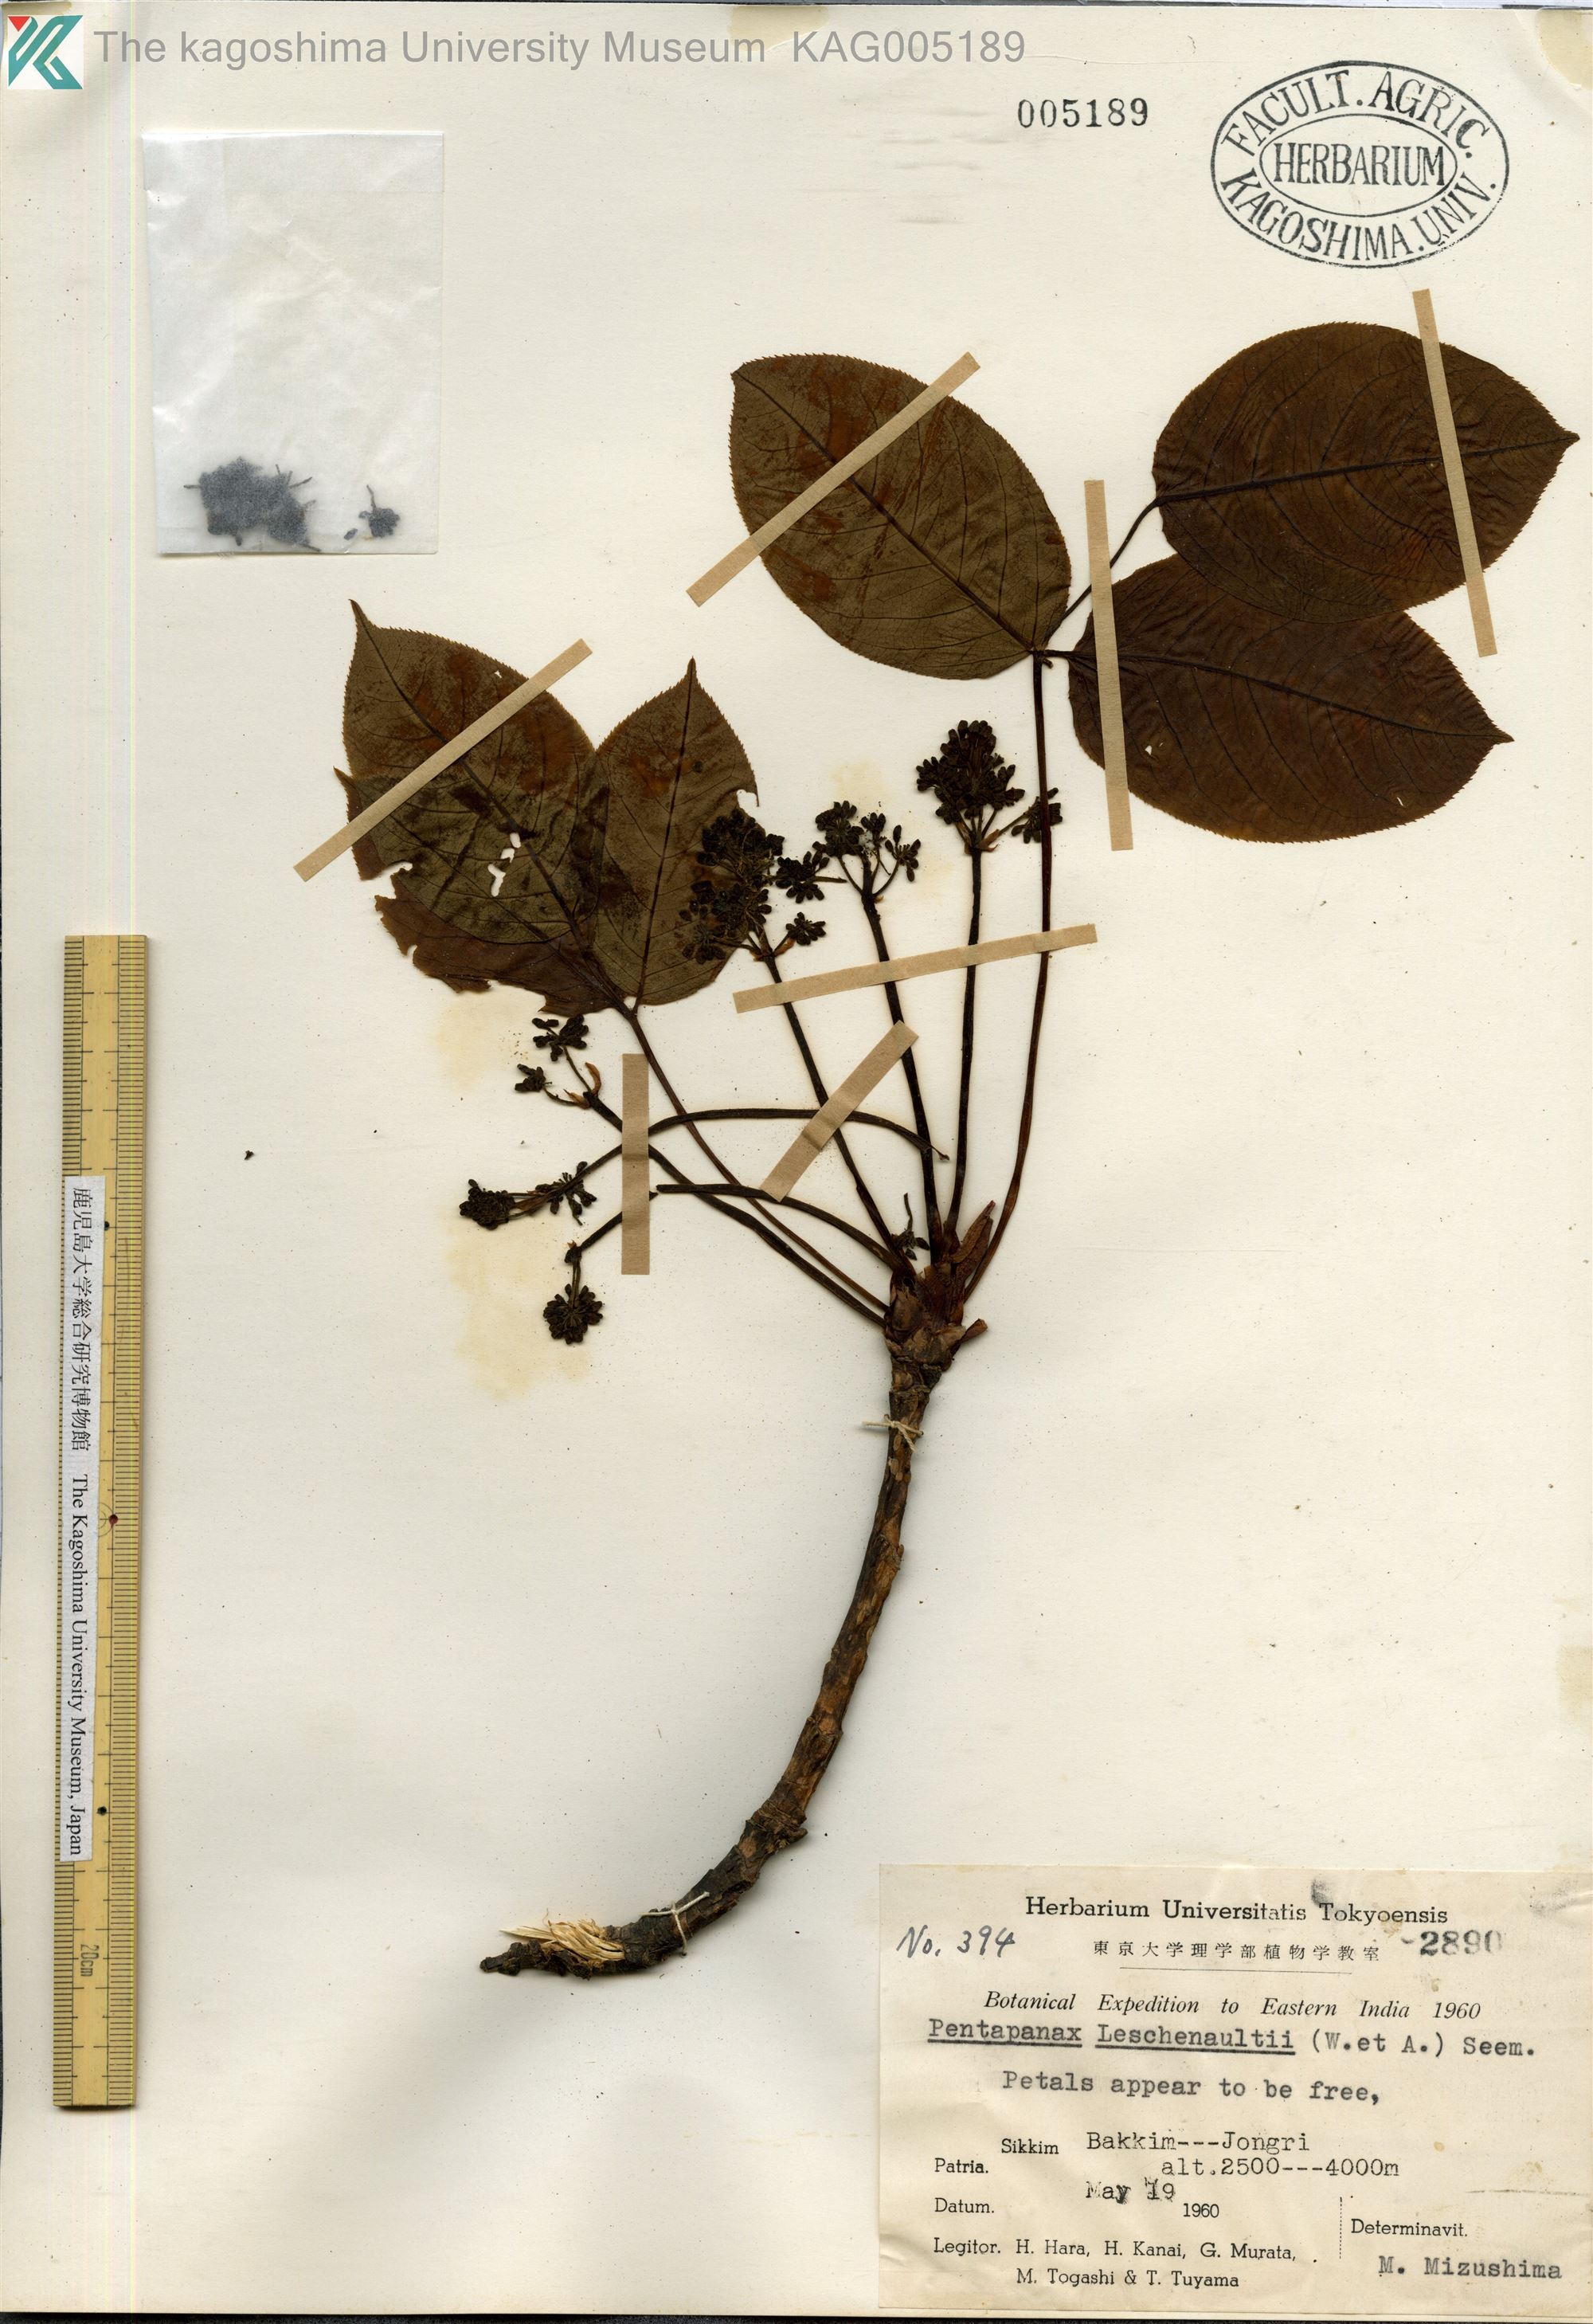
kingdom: Plantae
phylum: Tracheophyta
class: Magnoliopsida
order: Apiales
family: Araliaceae
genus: Aralia
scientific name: Aralia leschenaultii
